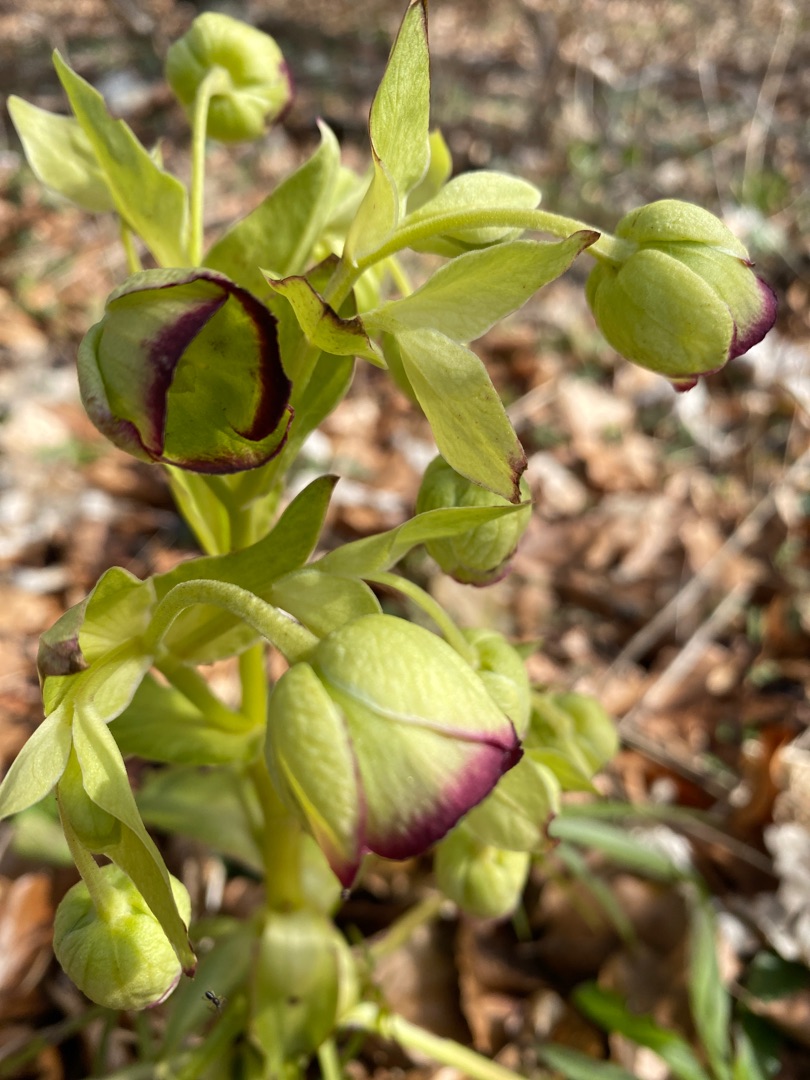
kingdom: Plantae
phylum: Tracheophyta
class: Magnoliopsida
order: Ranunculales
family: Ranunculaceae
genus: Helleborus
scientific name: Helleborus foetidus
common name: Stinkende julerose
